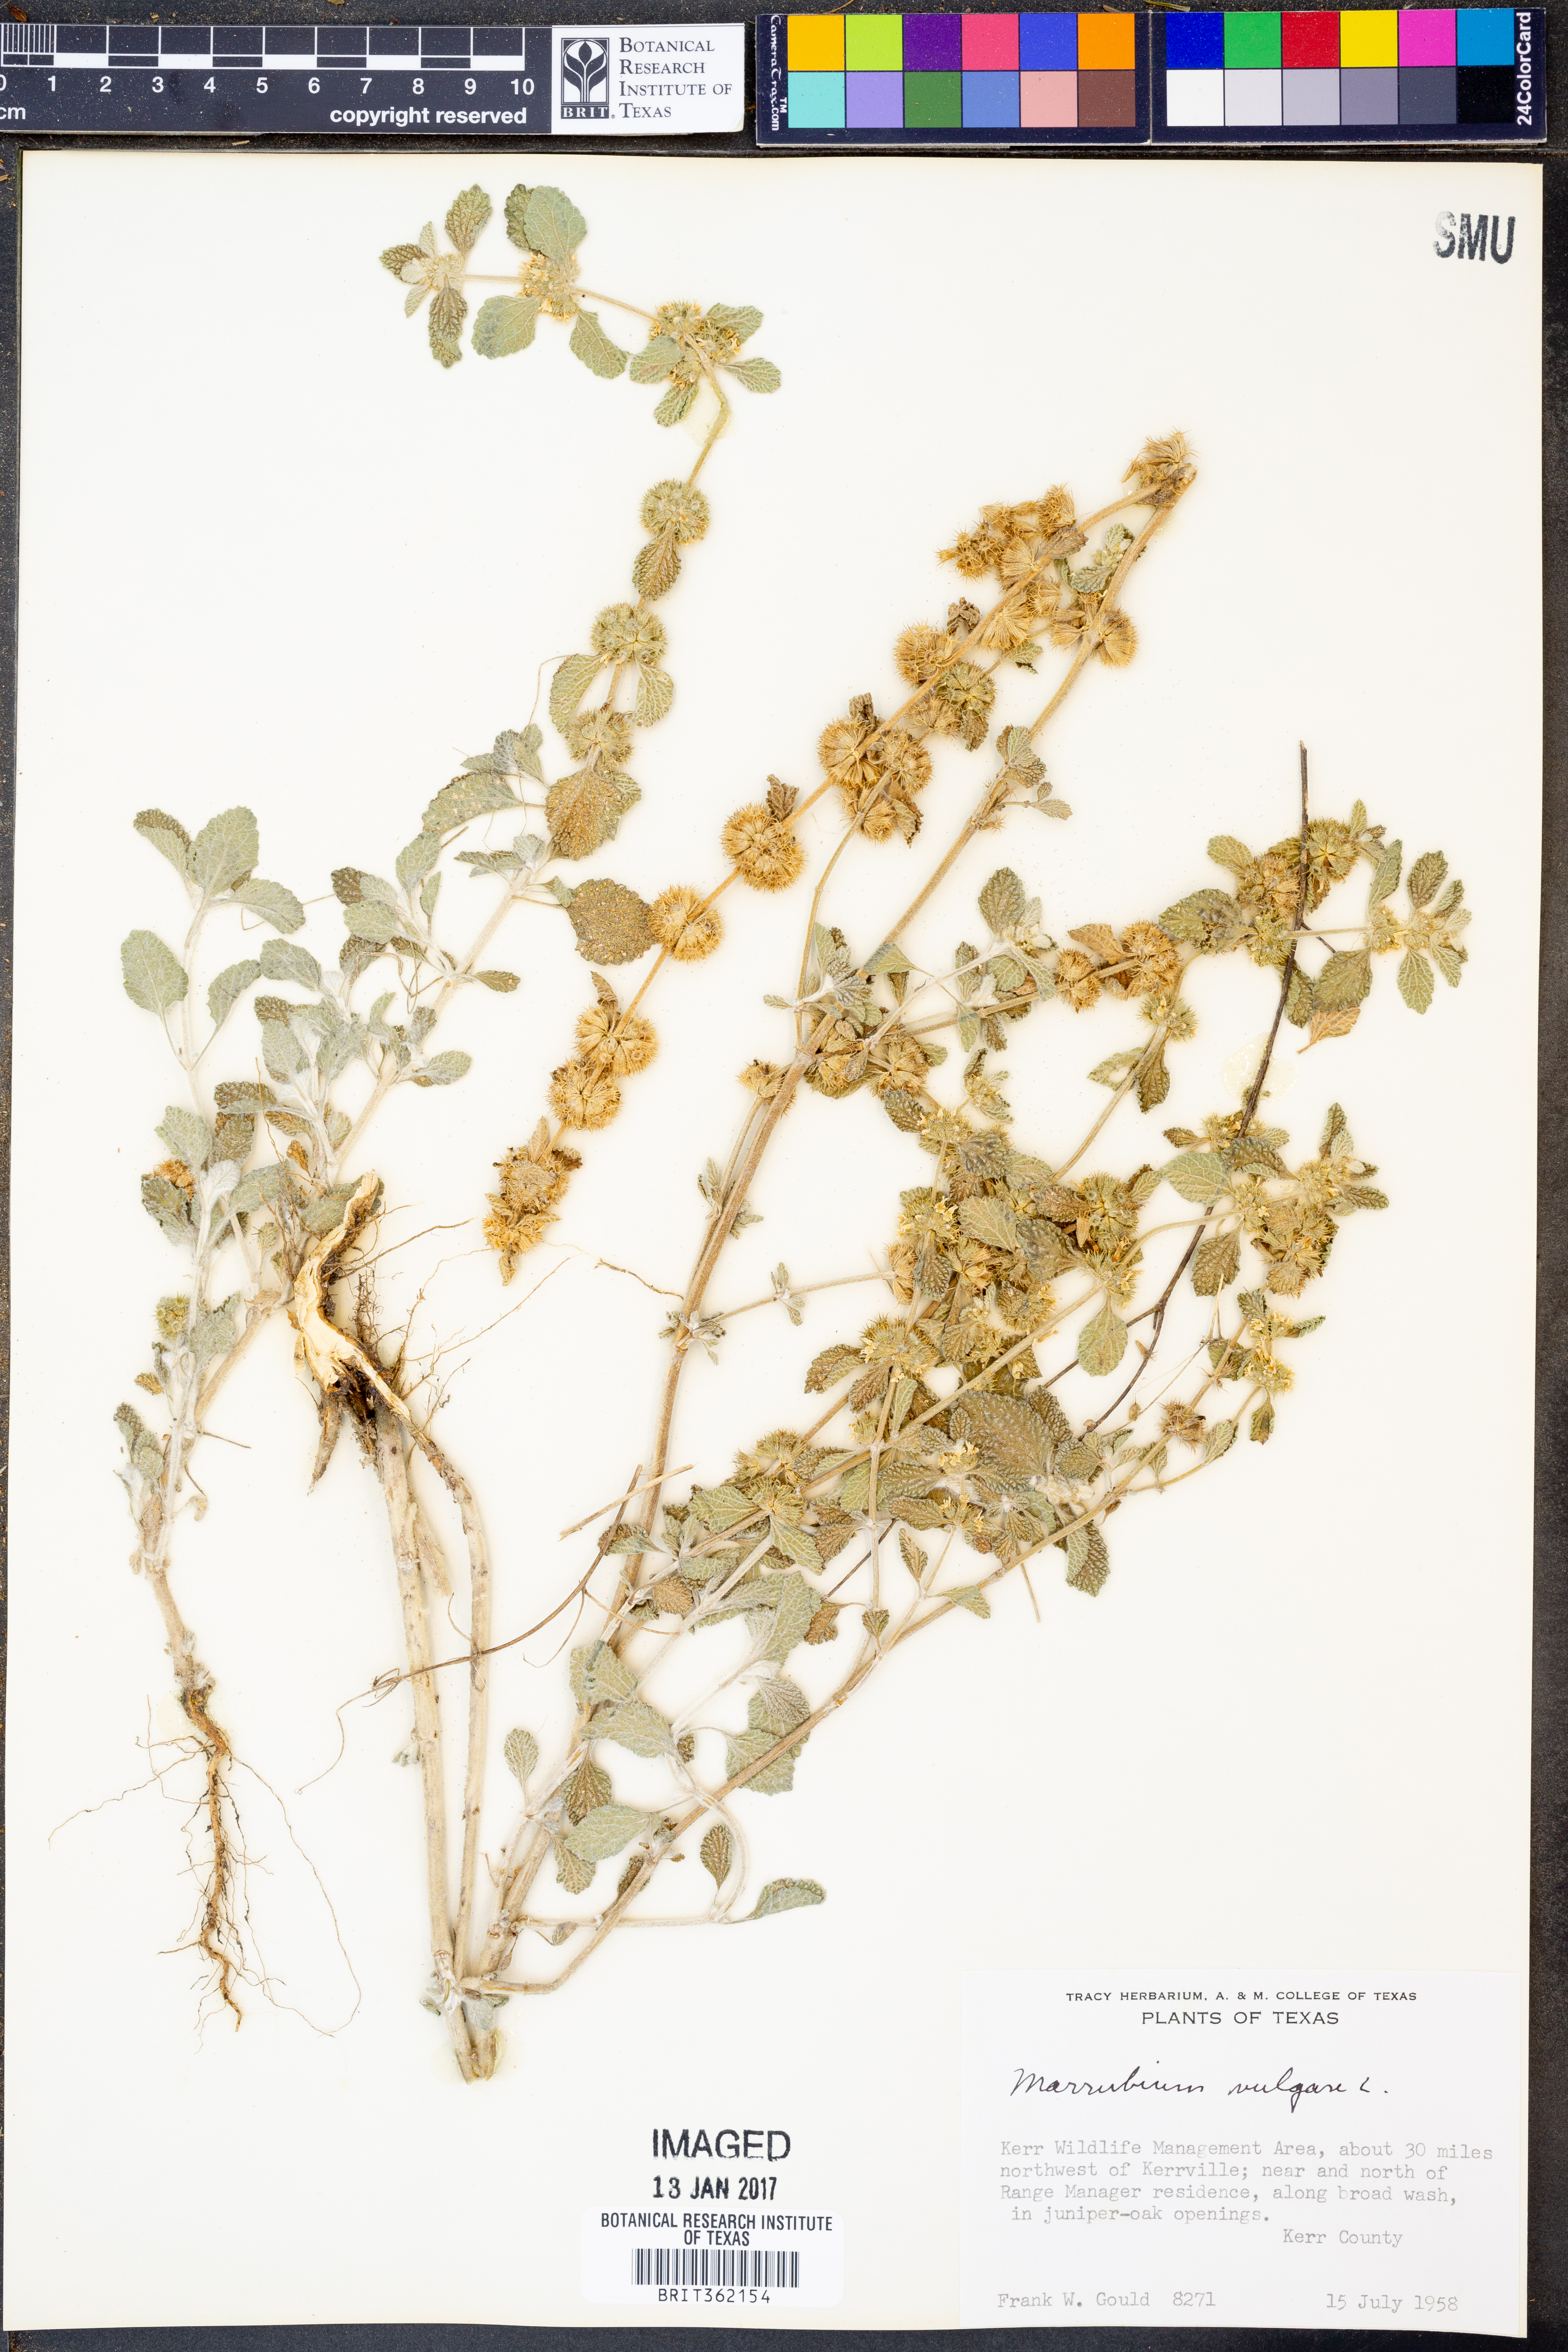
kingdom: Plantae
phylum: Tracheophyta
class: Magnoliopsida
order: Lamiales
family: Lamiaceae
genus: Marrubium
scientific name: Marrubium vulgare
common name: Horehound
